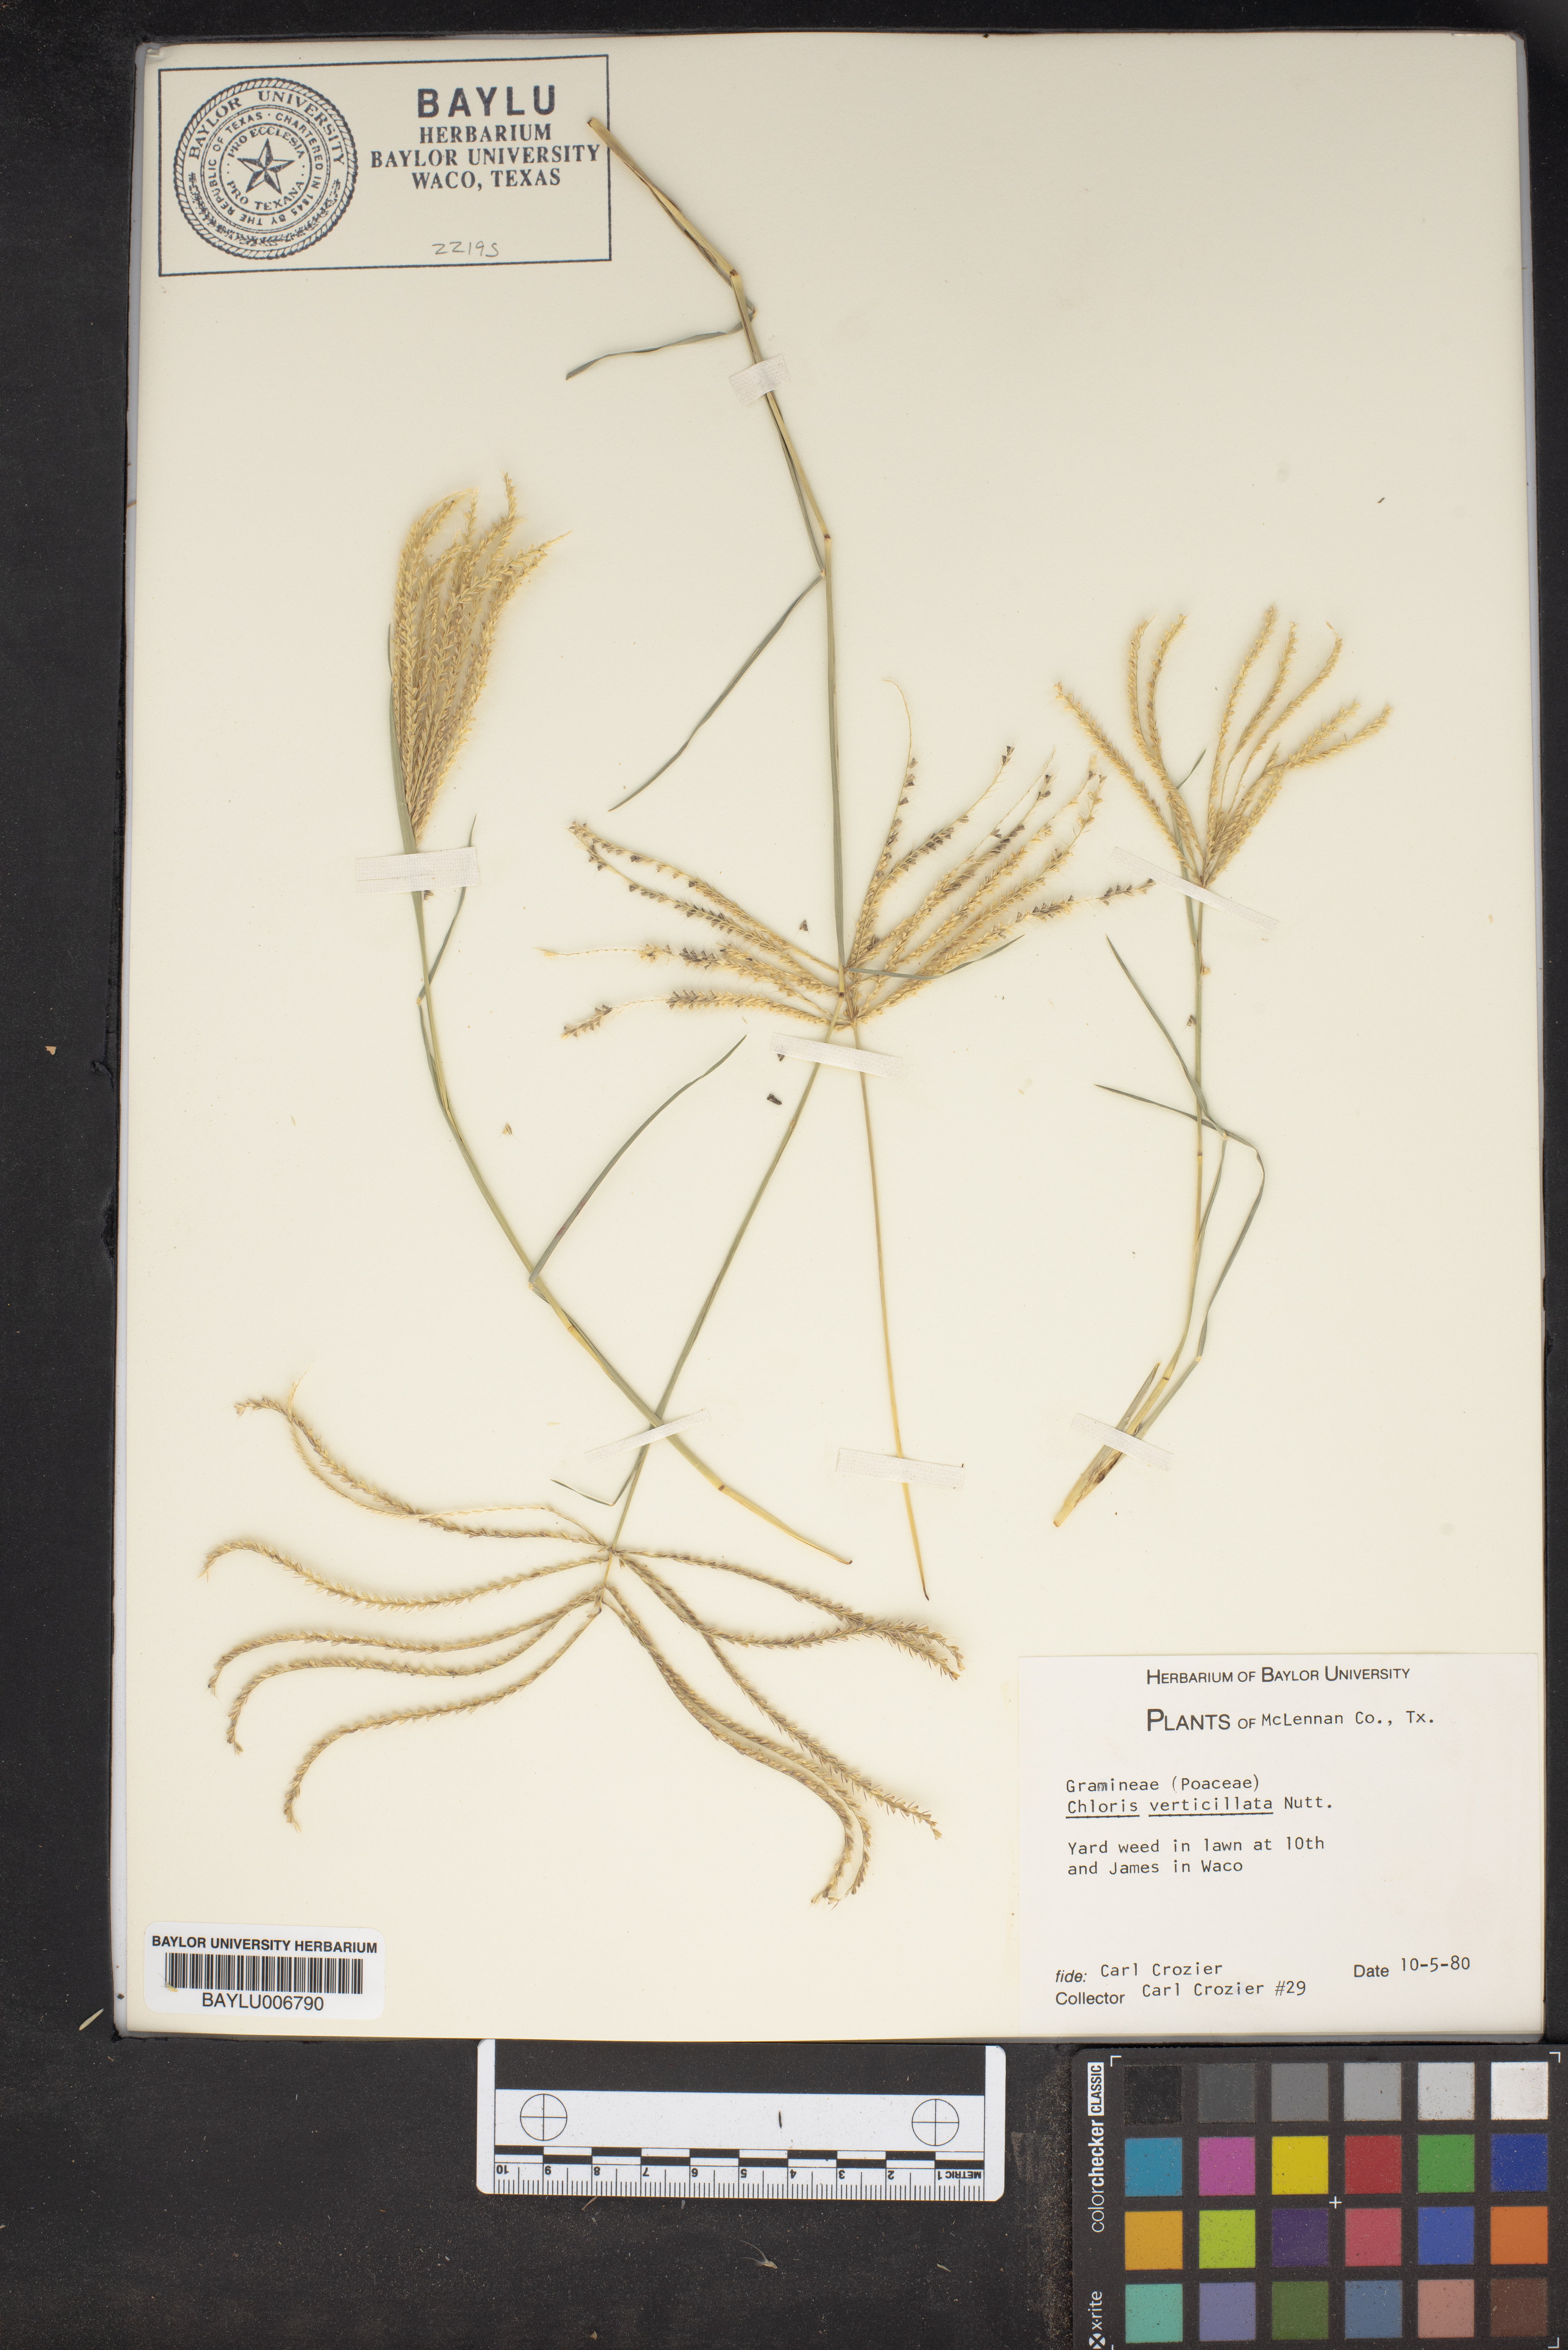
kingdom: Plantae
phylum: Tracheophyta
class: Liliopsida
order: Poales
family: Poaceae
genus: Chloris
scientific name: Chloris verticillata
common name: Tumble windmill grass
